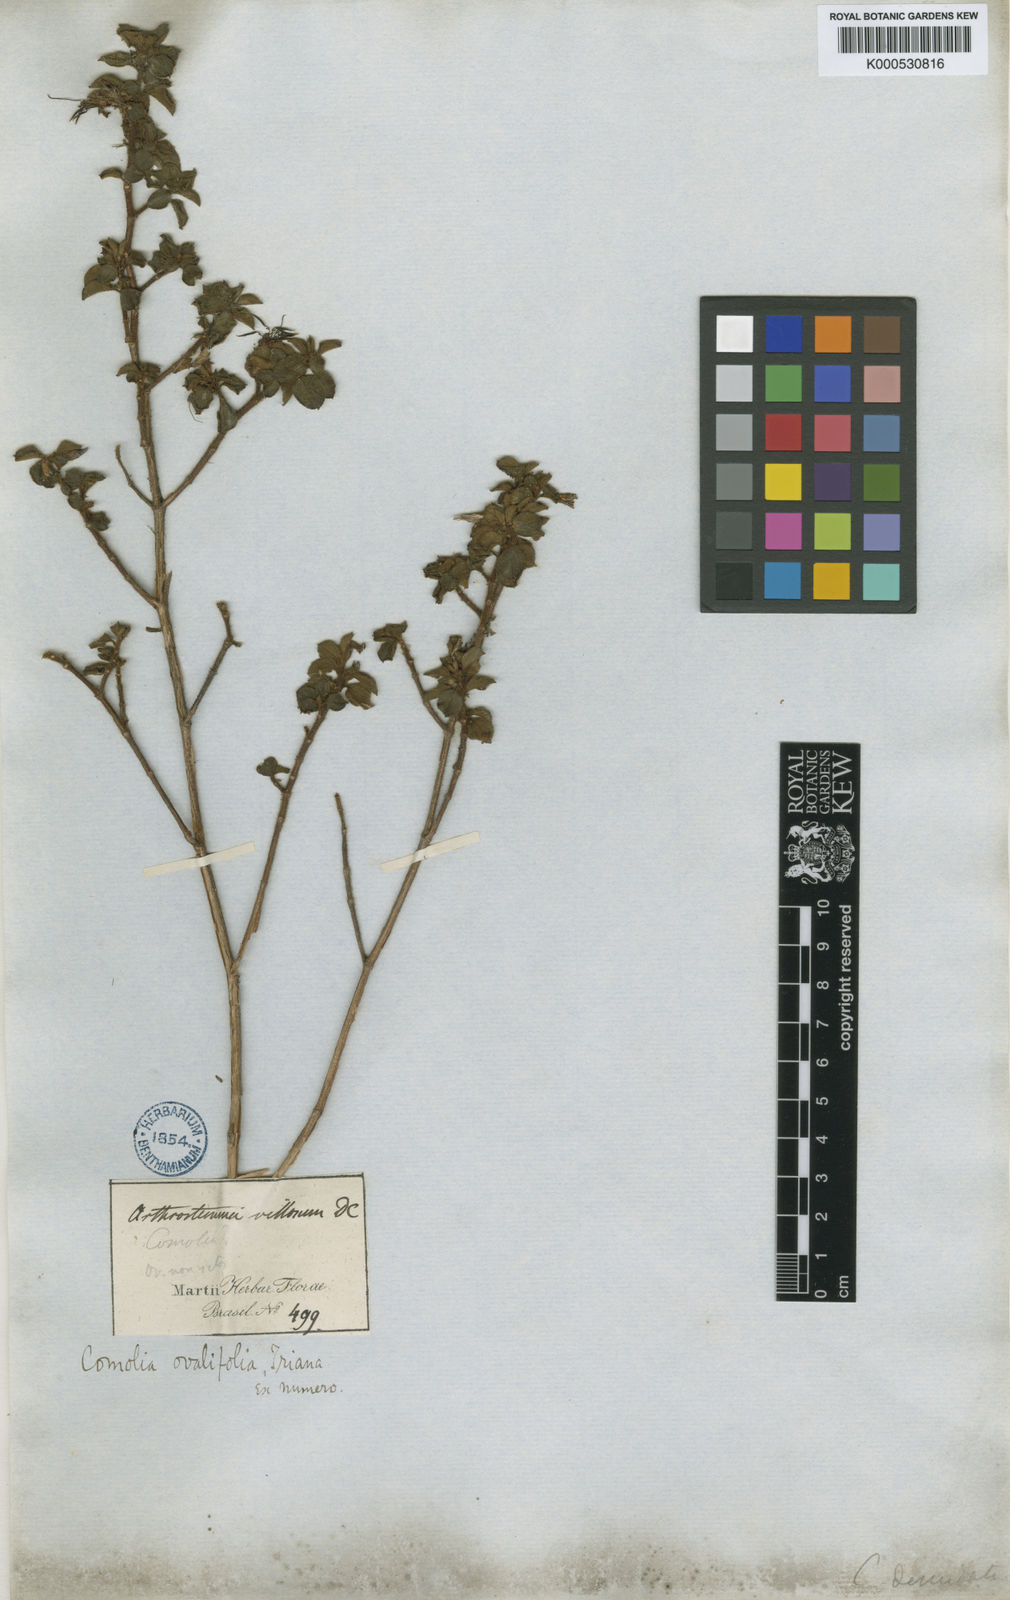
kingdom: Plantae
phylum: Tracheophyta
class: Magnoliopsida
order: Myrtales
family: Melastomataceae
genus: Comolia
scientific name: Comolia ovalifolia
